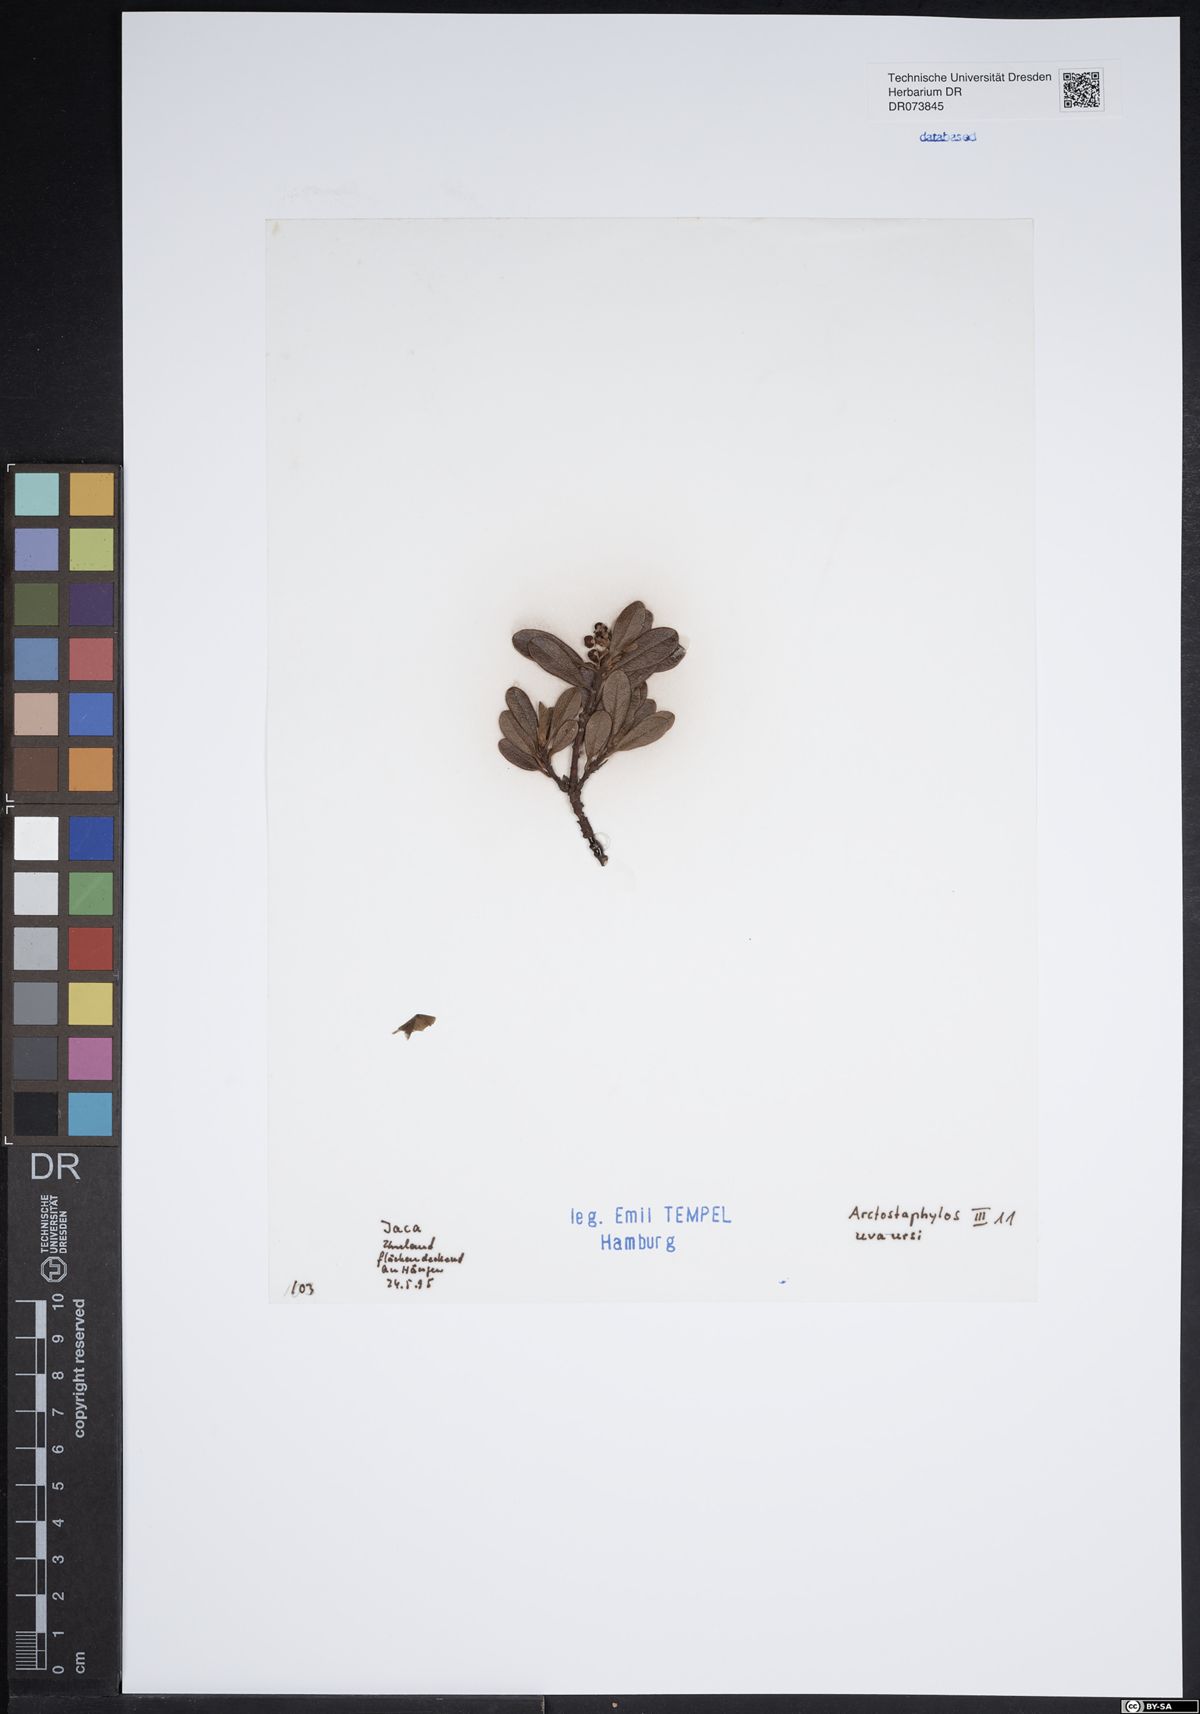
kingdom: Plantae
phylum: Tracheophyta
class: Magnoliopsida
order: Ericales
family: Ericaceae
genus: Arctostaphylos
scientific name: Arctostaphylos uva-ursi
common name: Bearberry
